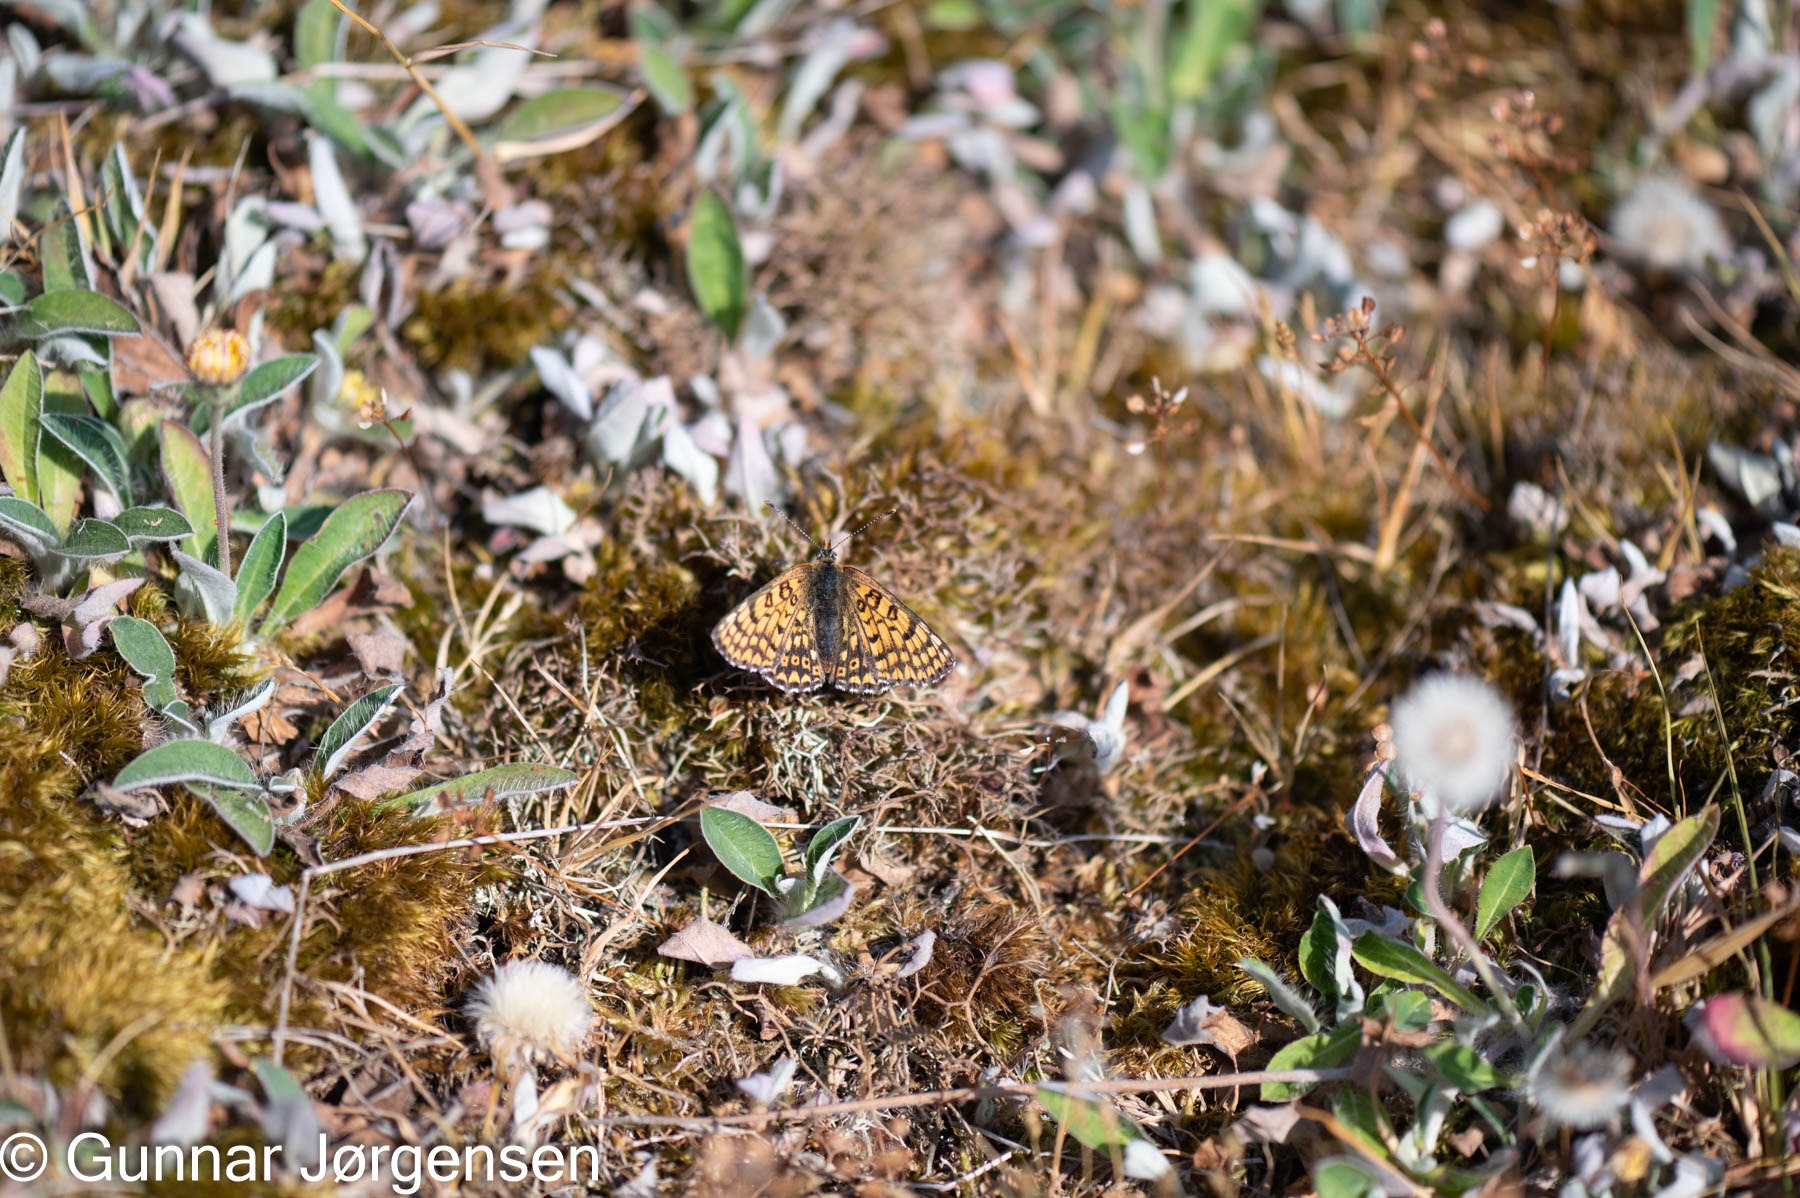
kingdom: Animalia
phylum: Arthropoda
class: Insecta
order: Lepidoptera
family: Nymphalidae
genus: Melitaea
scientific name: Melitaea cinxia
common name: Okkergul pletvinge
